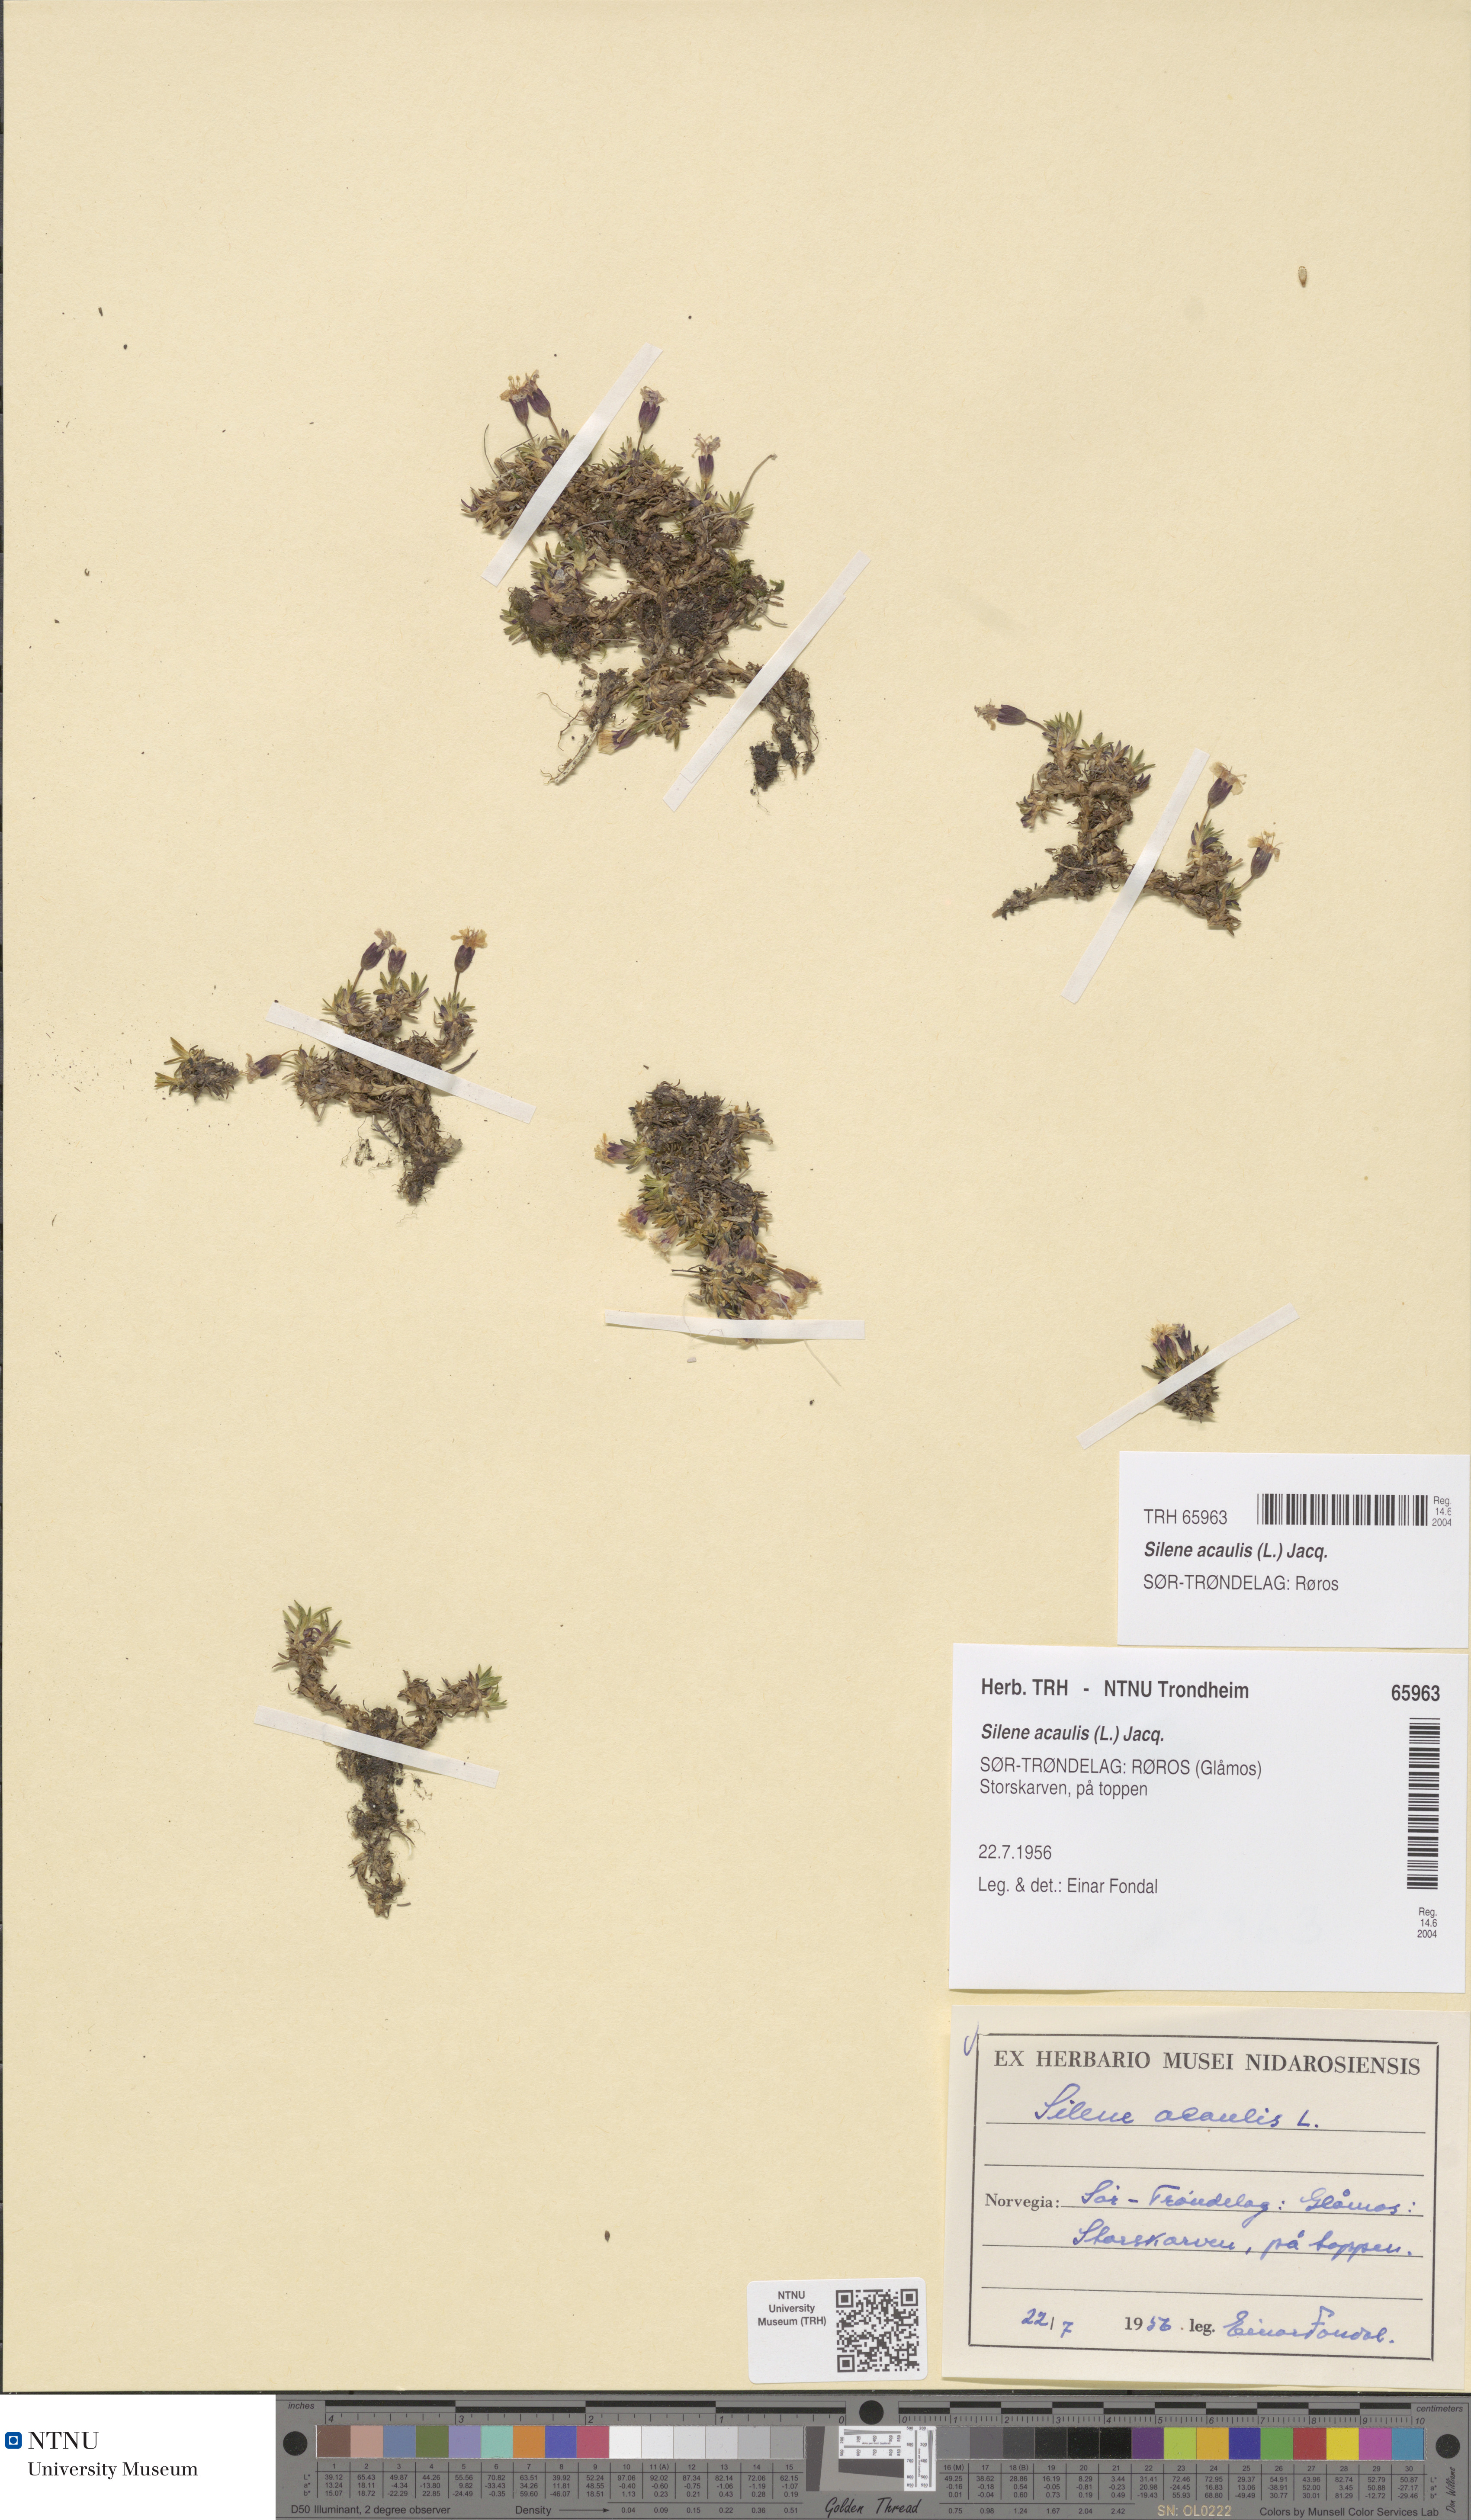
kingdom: Plantae
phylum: Tracheophyta
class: Magnoliopsida
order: Caryophyllales
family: Caryophyllaceae
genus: Silene
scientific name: Silene acaulis
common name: Moss campion
